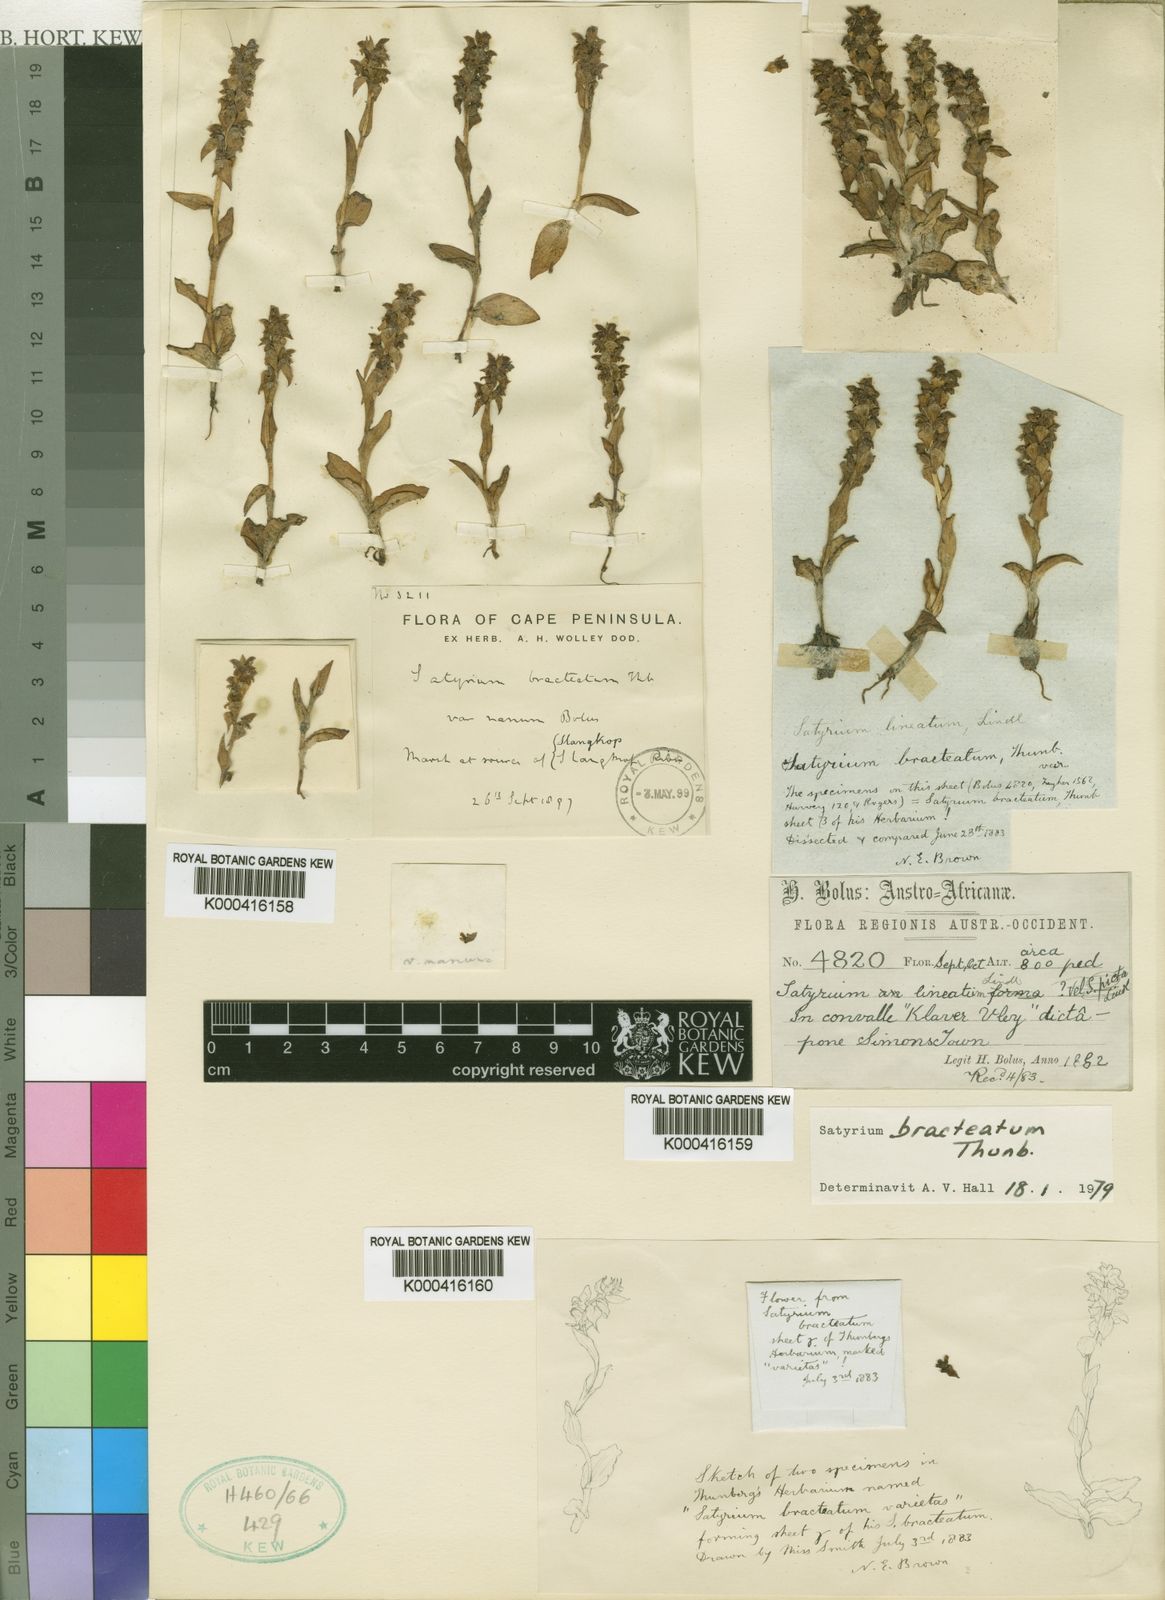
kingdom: Plantae
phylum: Tracheophyta
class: Liliopsida
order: Asparagales
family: Orchidaceae
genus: Satyrium
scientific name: Satyrium bracteatum
